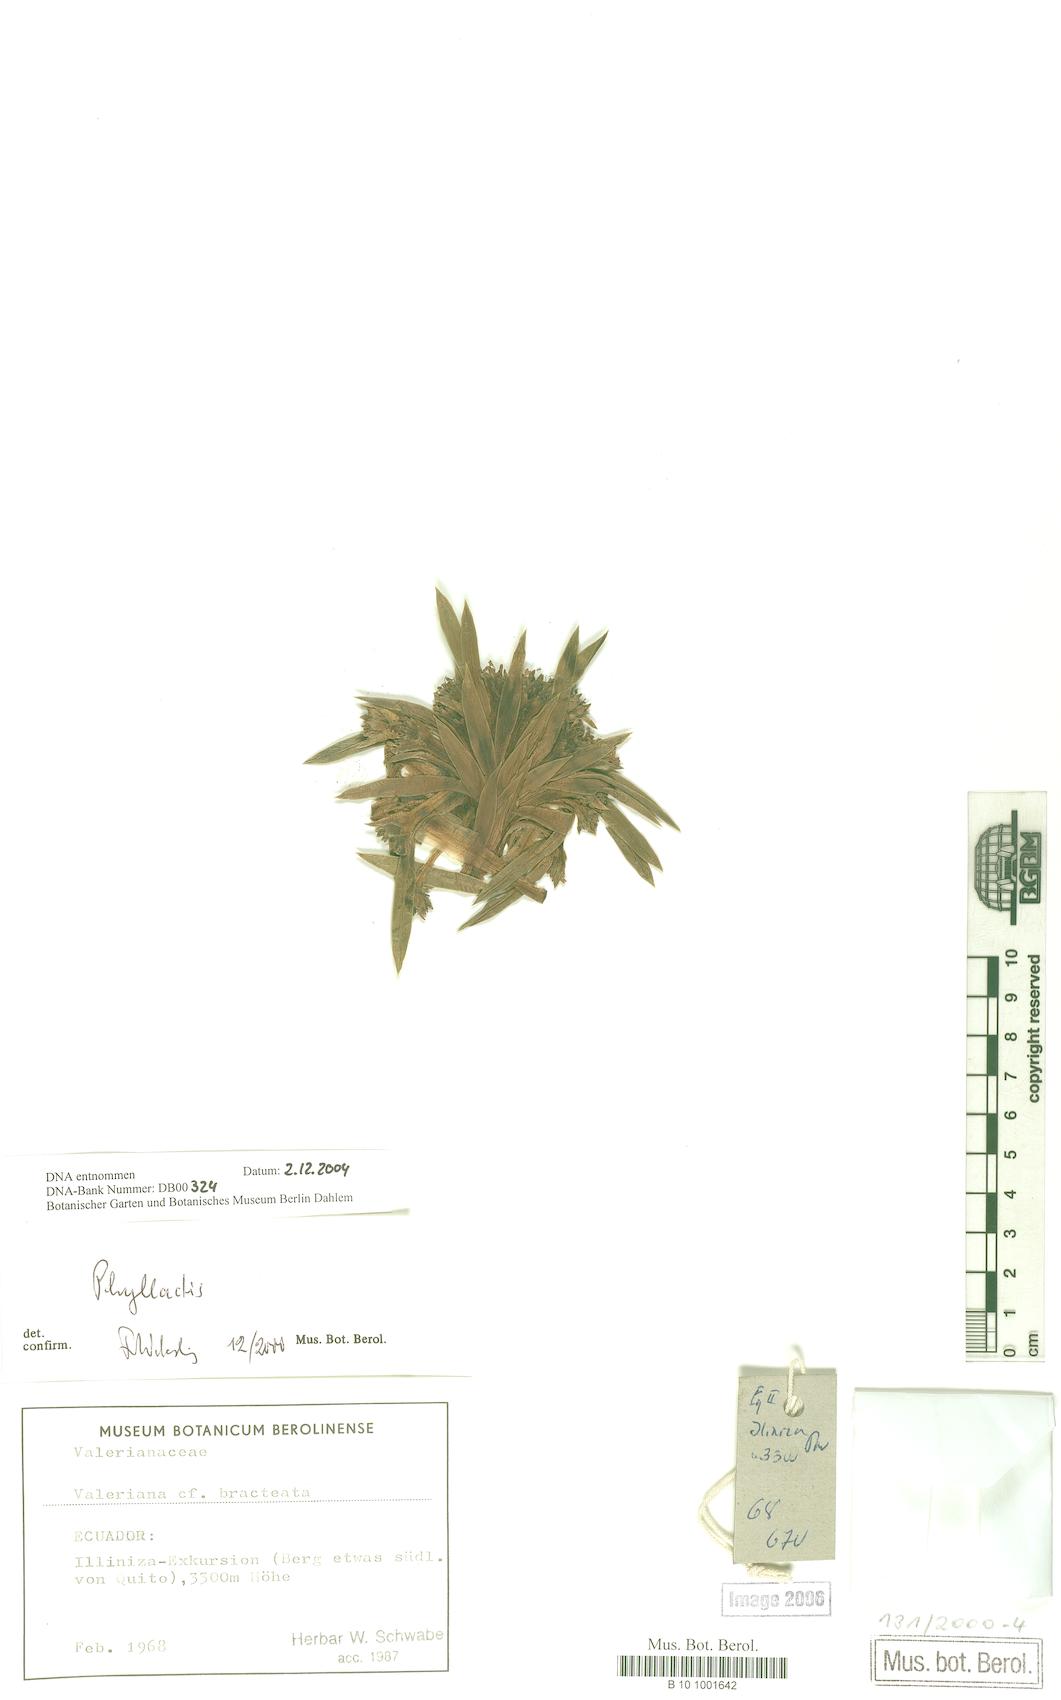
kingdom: Plantae
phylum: Tracheophyta
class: Magnoliopsida
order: Dipsacales
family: Caprifoliaceae
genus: Valeriana
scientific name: Valeriana bracteata
